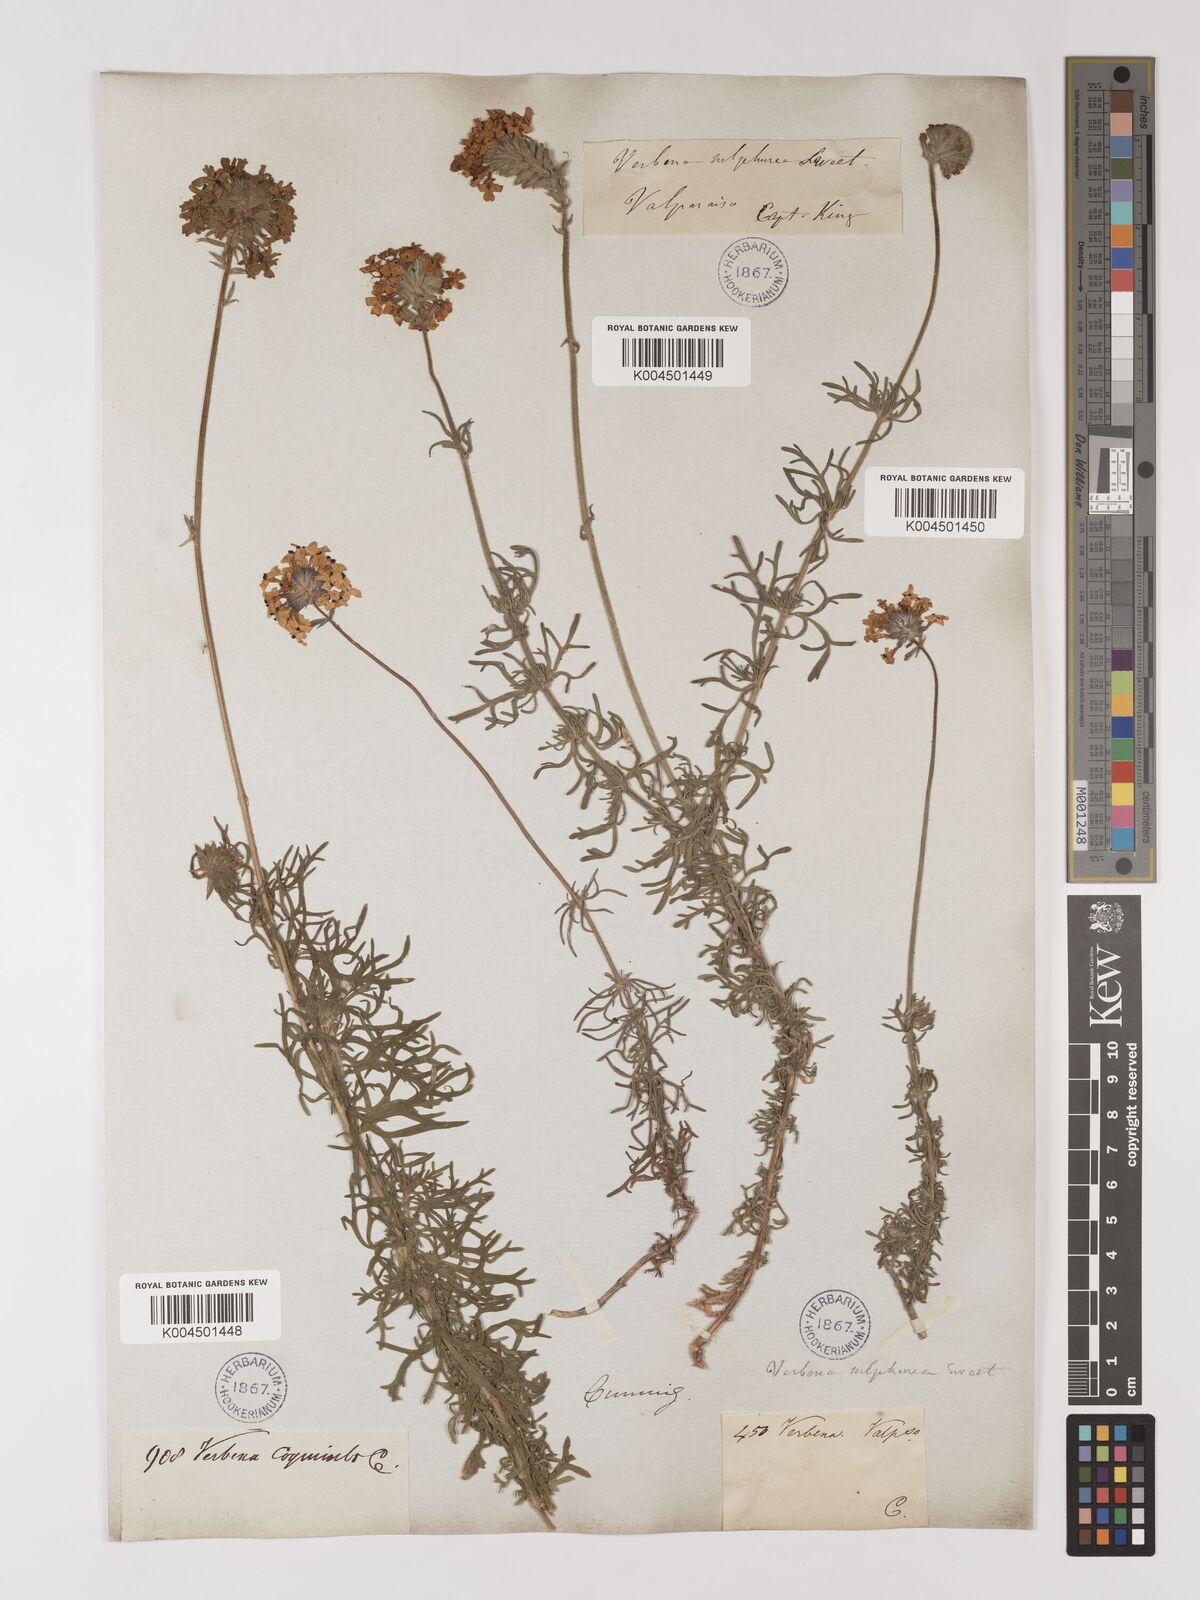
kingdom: Plantae
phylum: Tracheophyta
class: Magnoliopsida
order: Lamiales
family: Verbenaceae
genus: Verbena
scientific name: Verbena sulphurea
